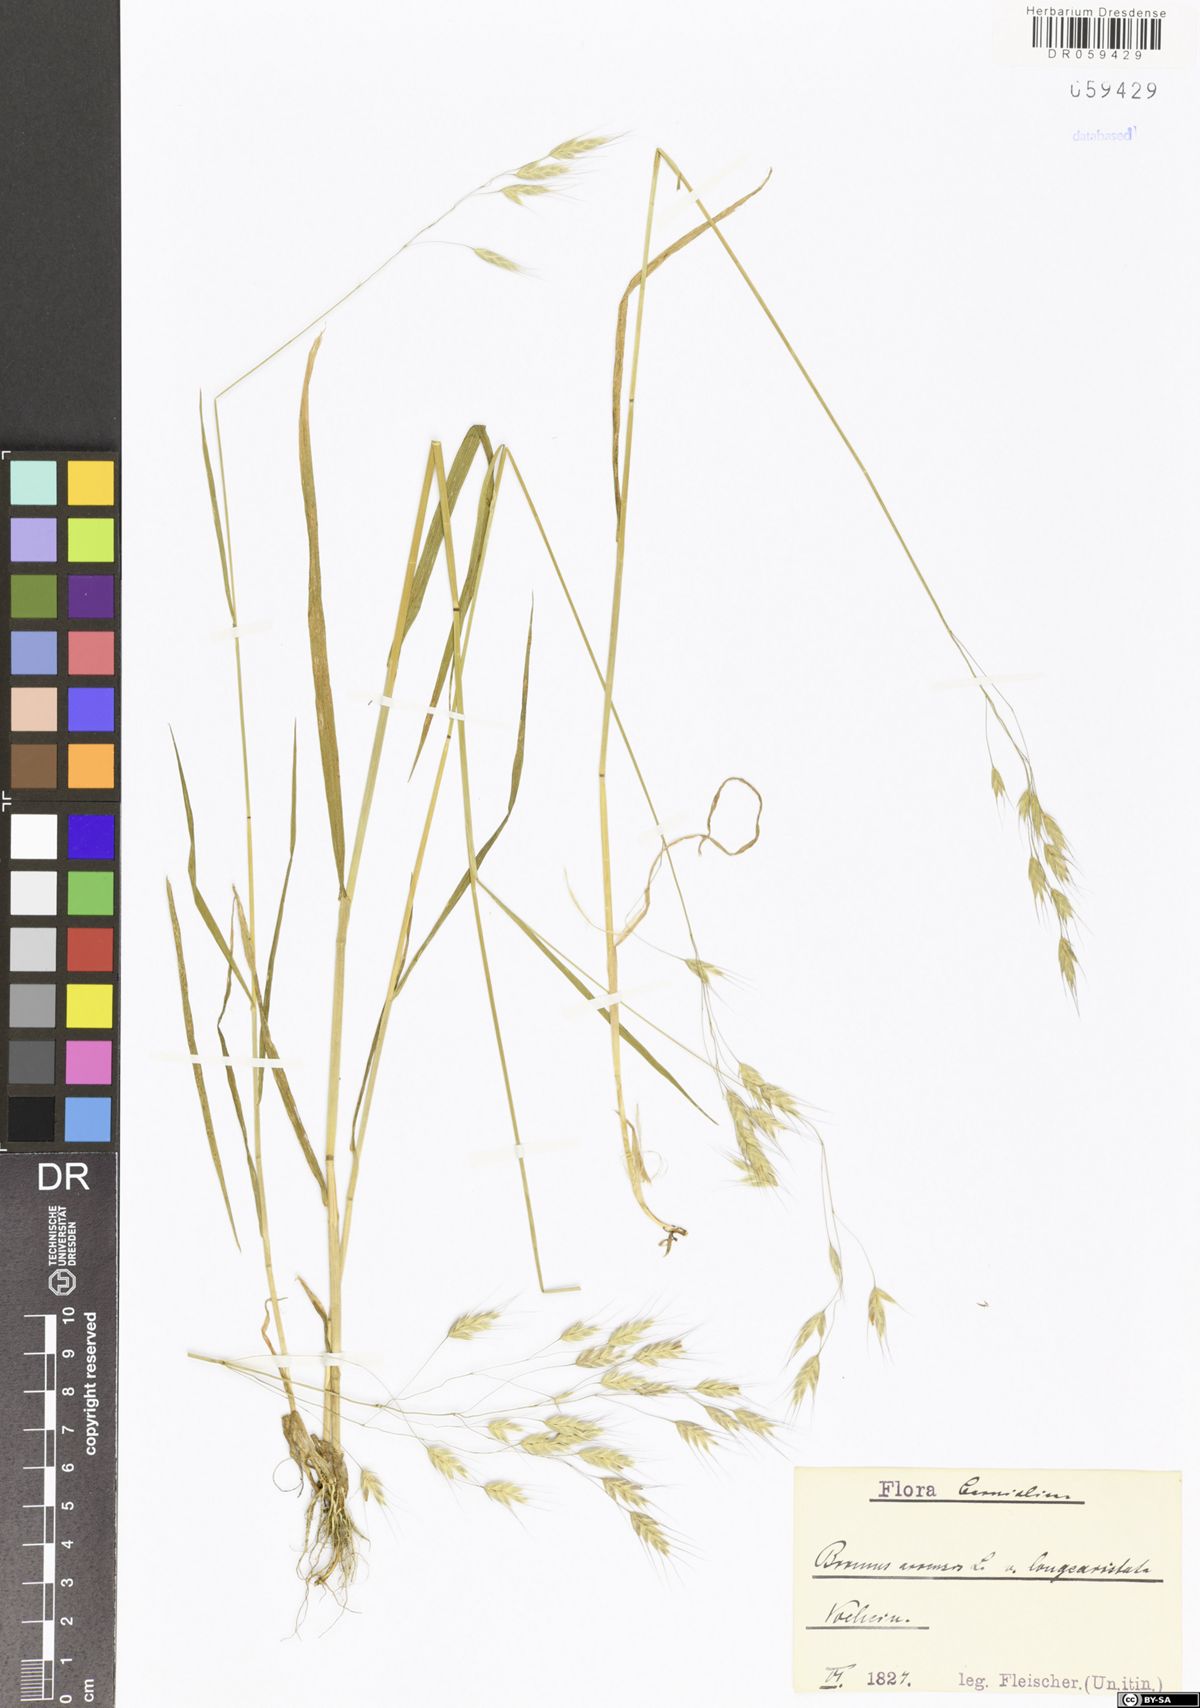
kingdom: Plantae
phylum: Tracheophyta
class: Liliopsida
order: Poales
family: Poaceae
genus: Bromus
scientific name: Bromus arvensis
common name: Field brome
